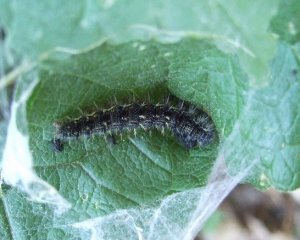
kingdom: Animalia
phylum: Arthropoda
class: Insecta
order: Lepidoptera
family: Nymphalidae
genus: Vanessa
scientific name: Vanessa cardui
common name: Painted Lady
